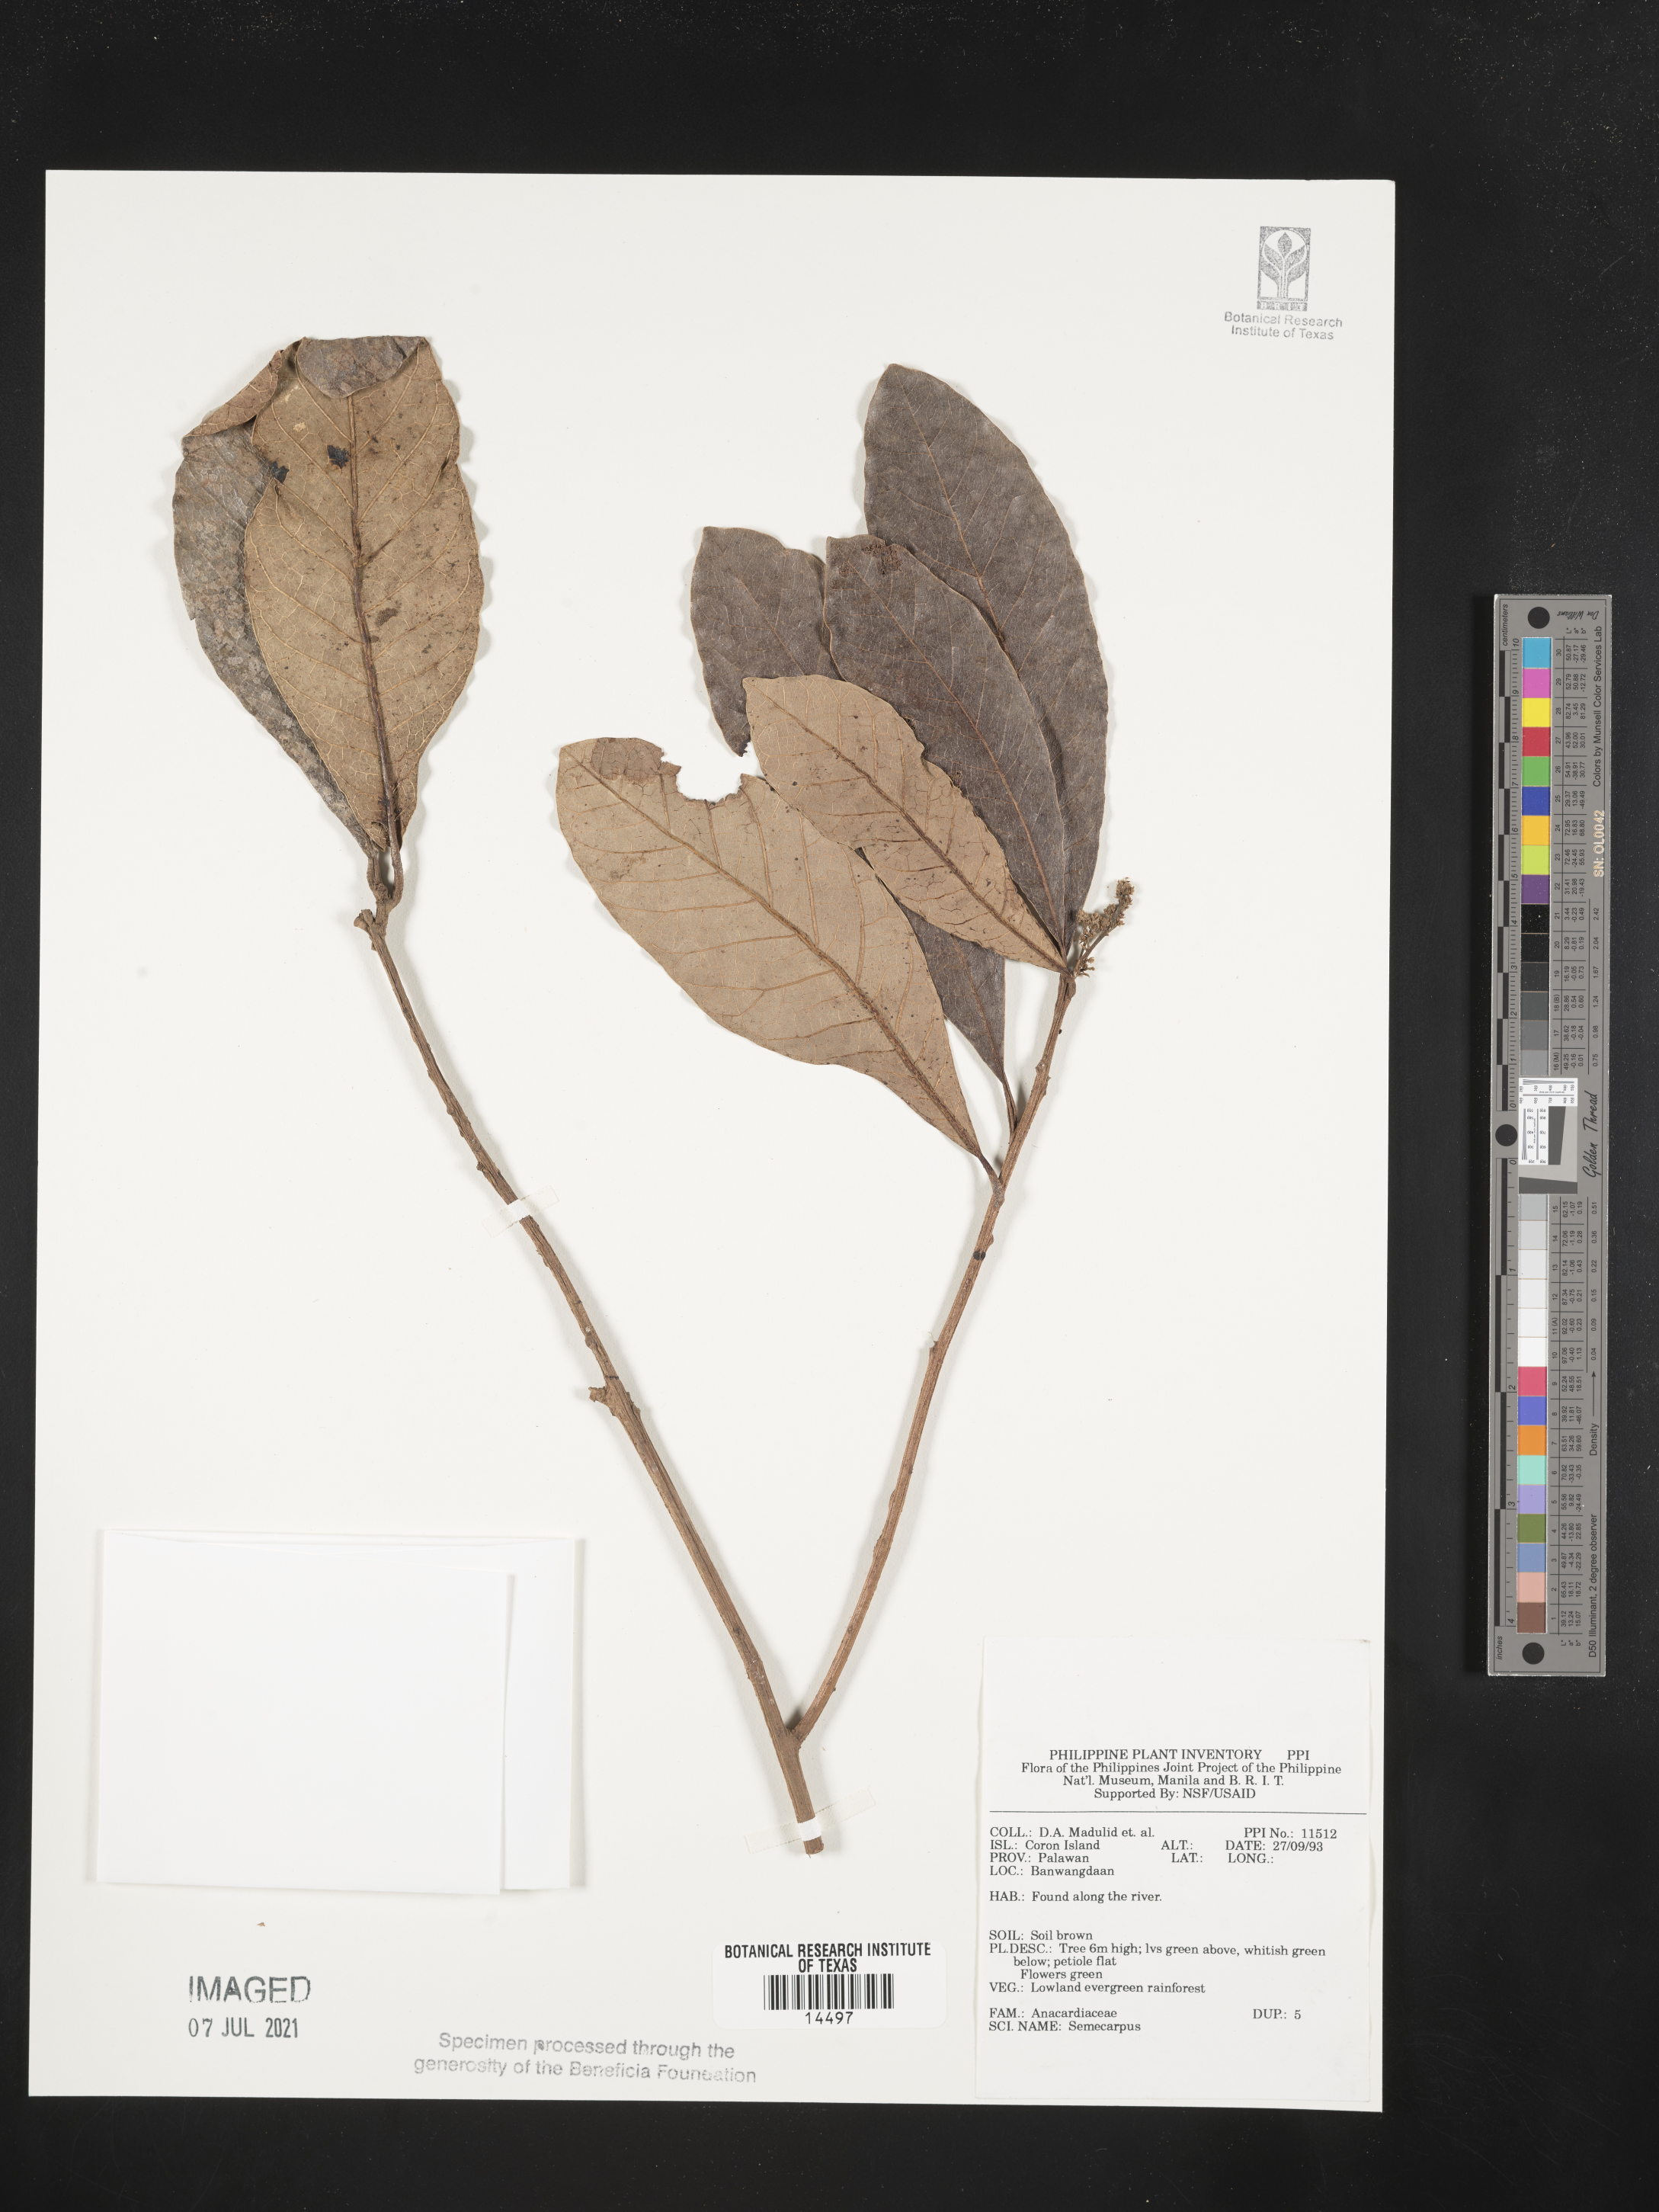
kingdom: Plantae
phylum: Tracheophyta
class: Magnoliopsida
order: Sapindales
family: Anacardiaceae
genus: Semecarpus
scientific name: Semecarpus
